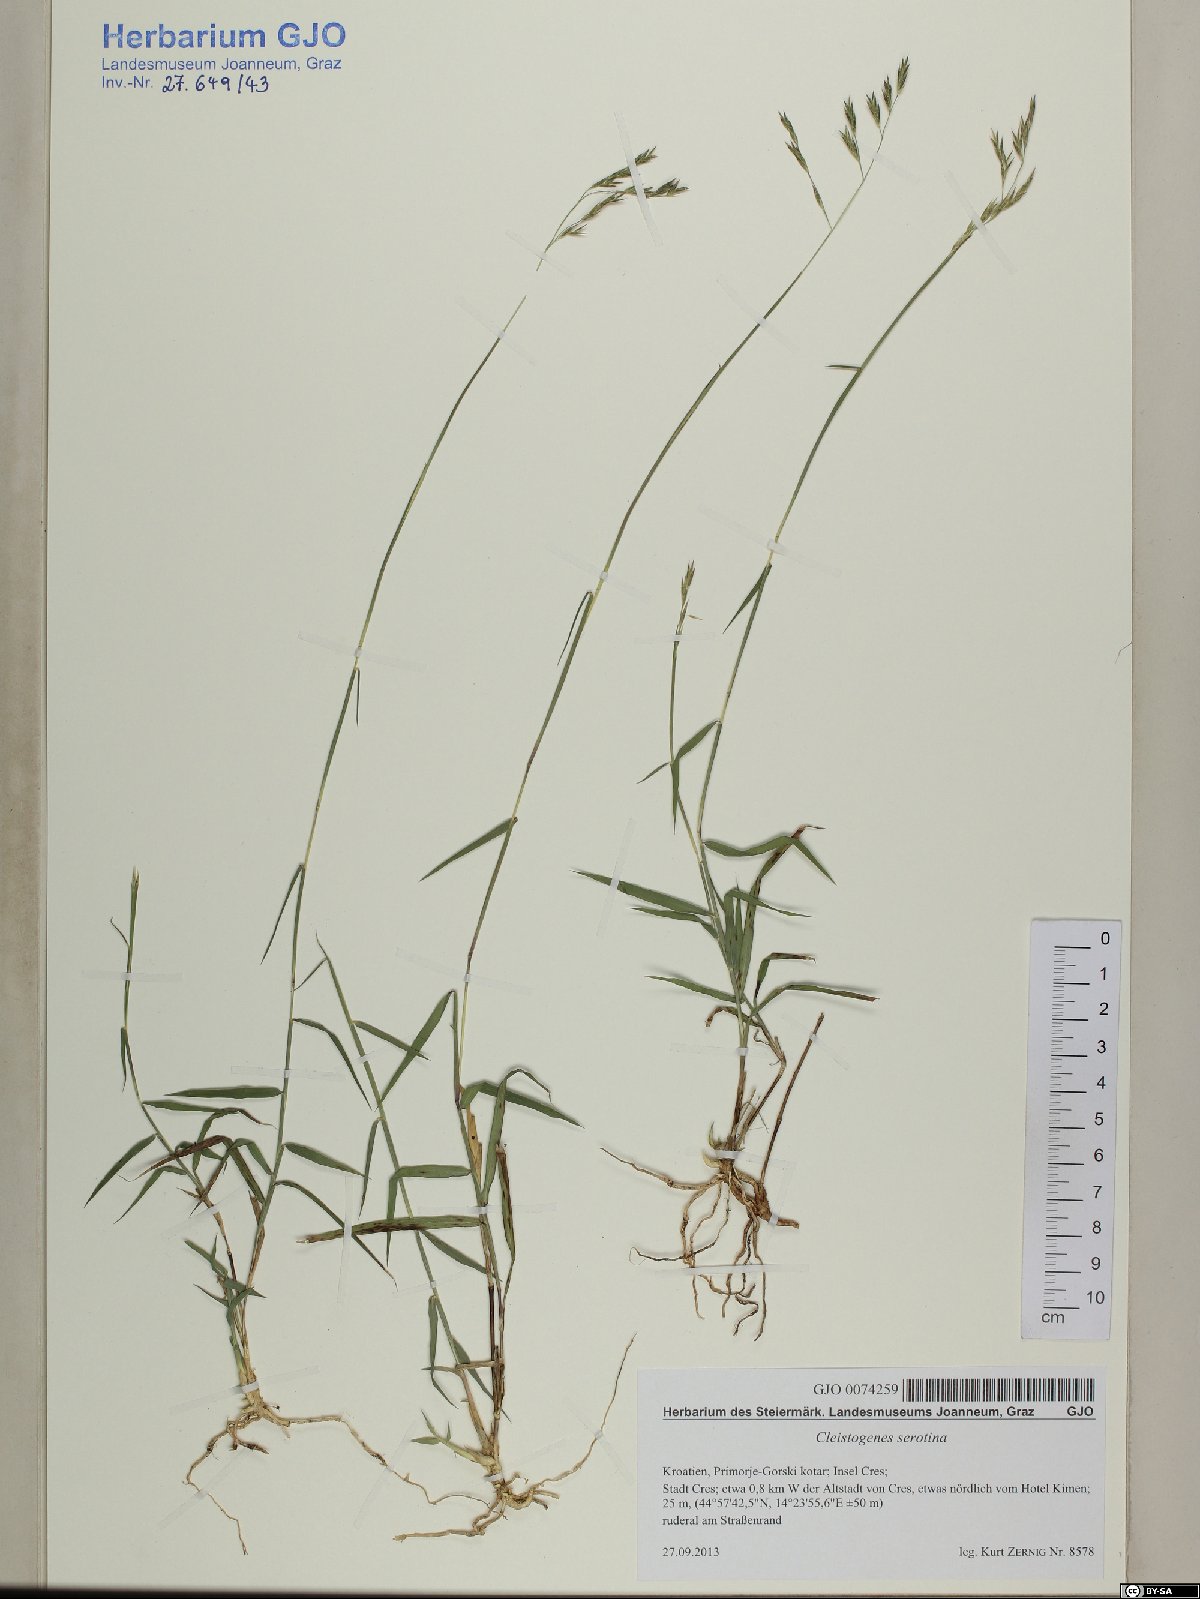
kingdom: Plantae
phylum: Tracheophyta
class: Liliopsida
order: Poales
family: Poaceae
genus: Cleistogenes
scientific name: Cleistogenes serotina
